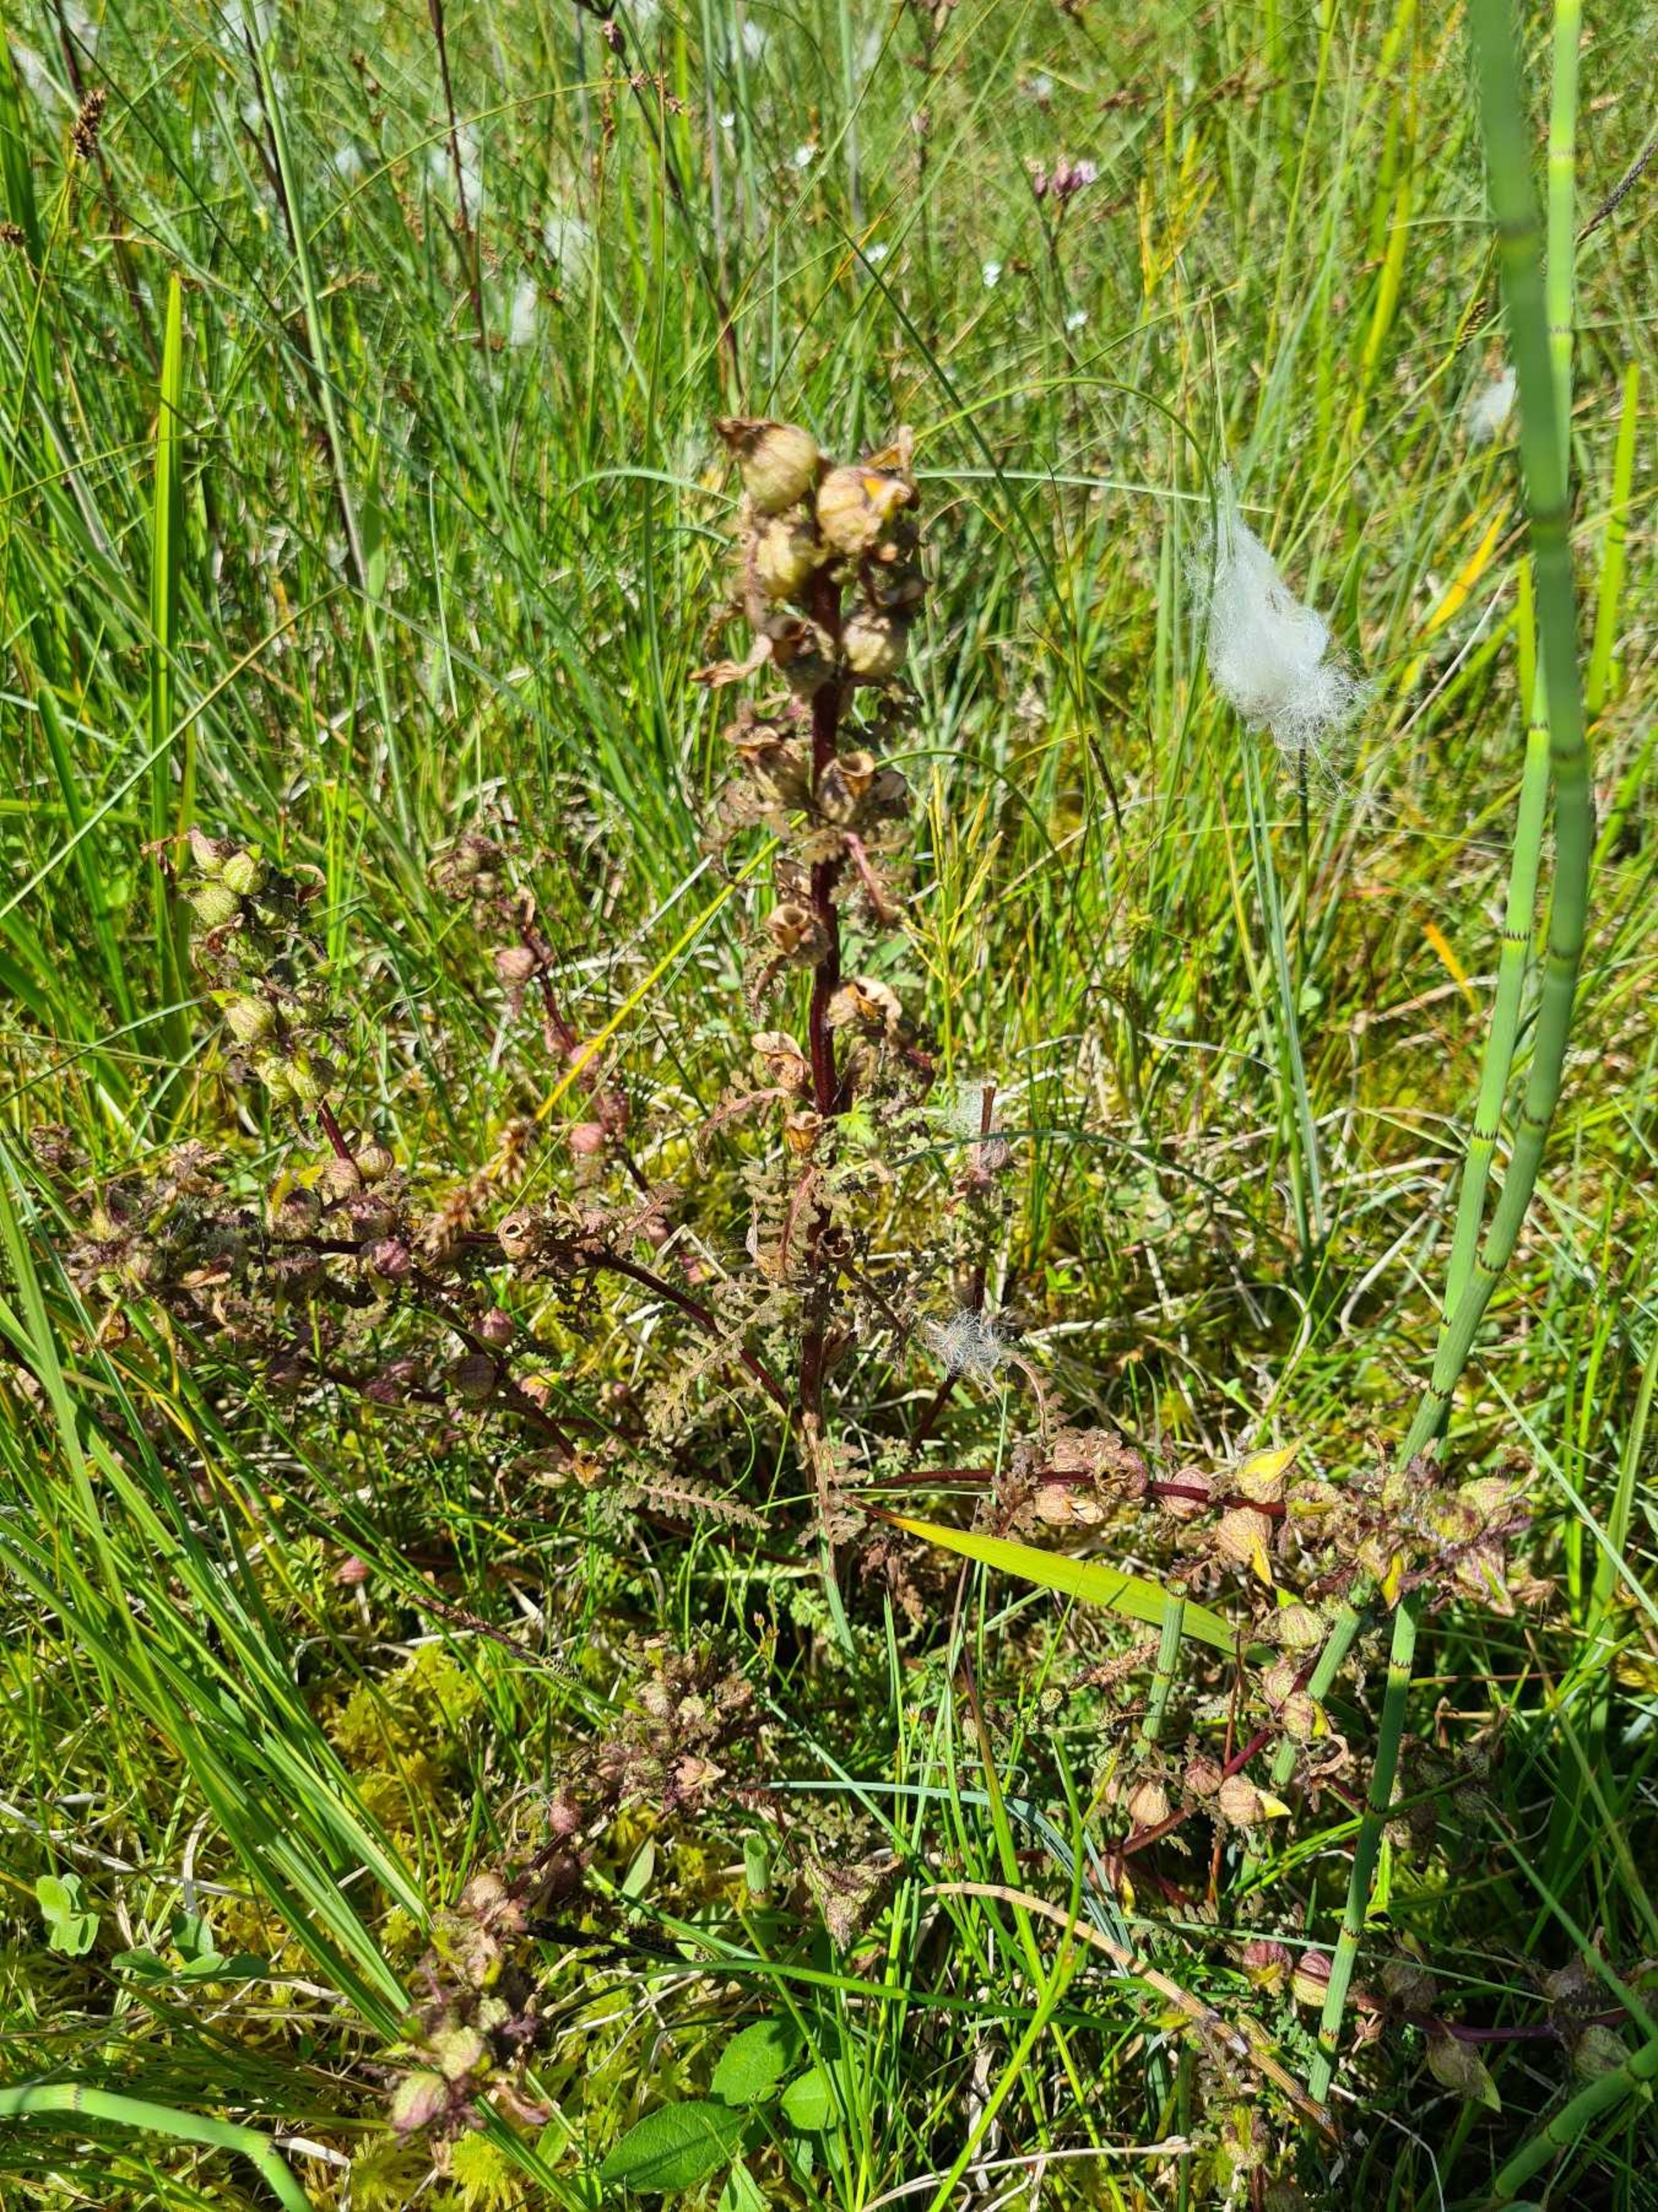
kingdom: Plantae
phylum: Tracheophyta
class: Magnoliopsida
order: Lamiales
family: Orobanchaceae
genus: Pedicularis
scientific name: Pedicularis palustris
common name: Eng-troldurt
